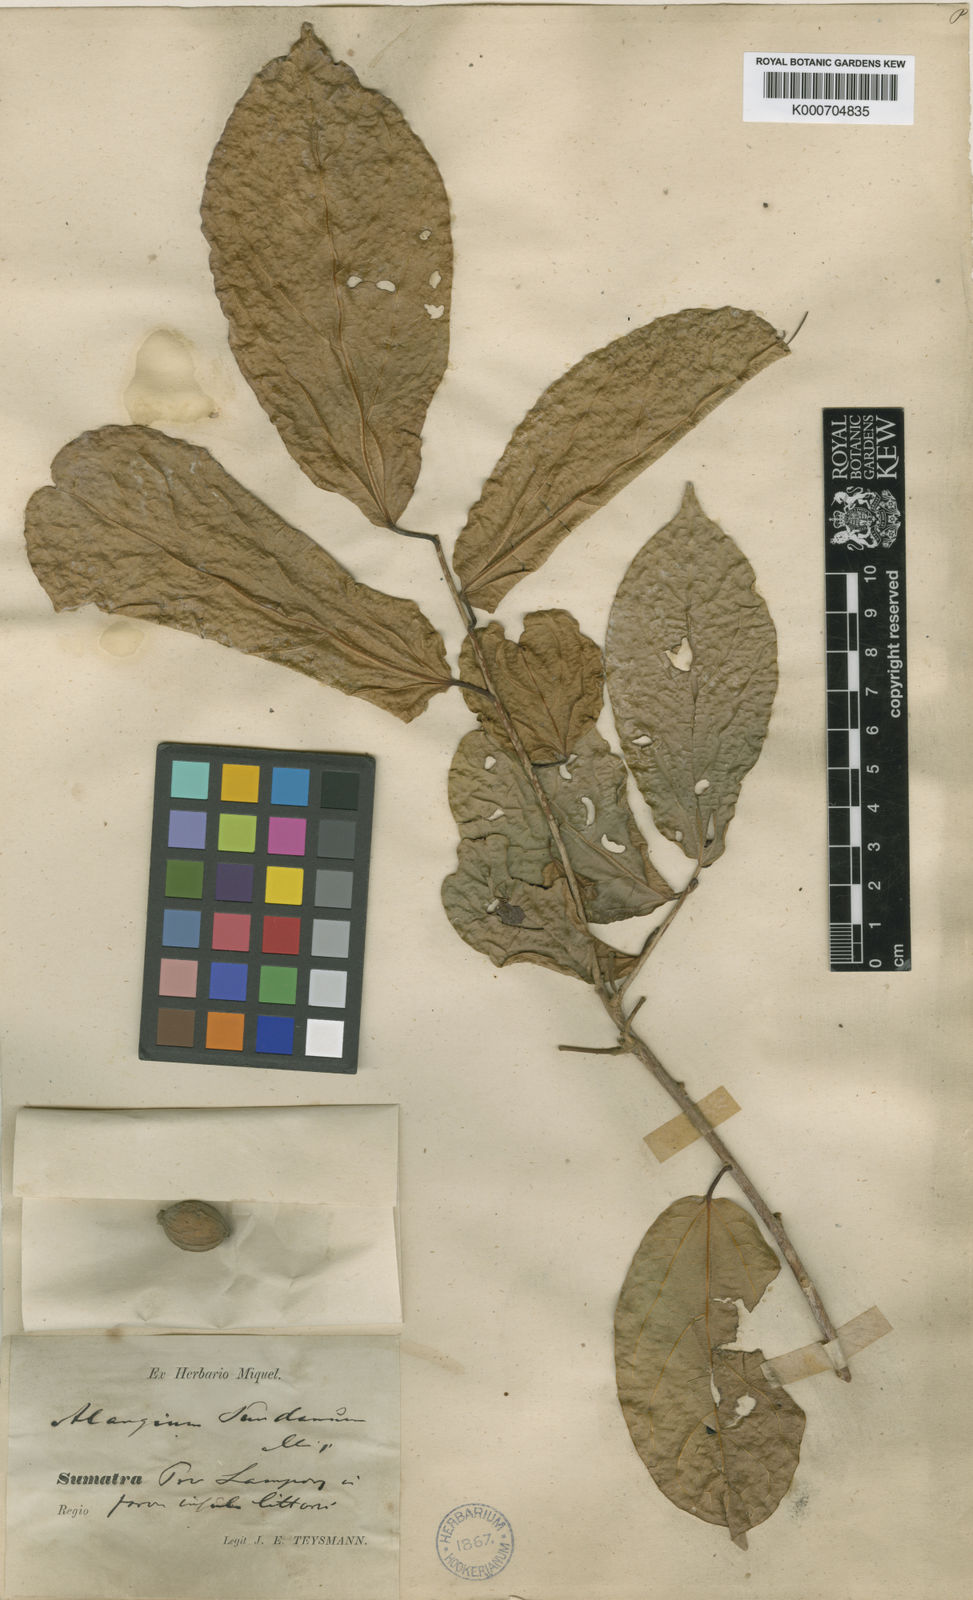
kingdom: Plantae
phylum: Tracheophyta
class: Magnoliopsida
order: Cornales
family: Cornaceae
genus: Alangium
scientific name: Alangium frutescens
